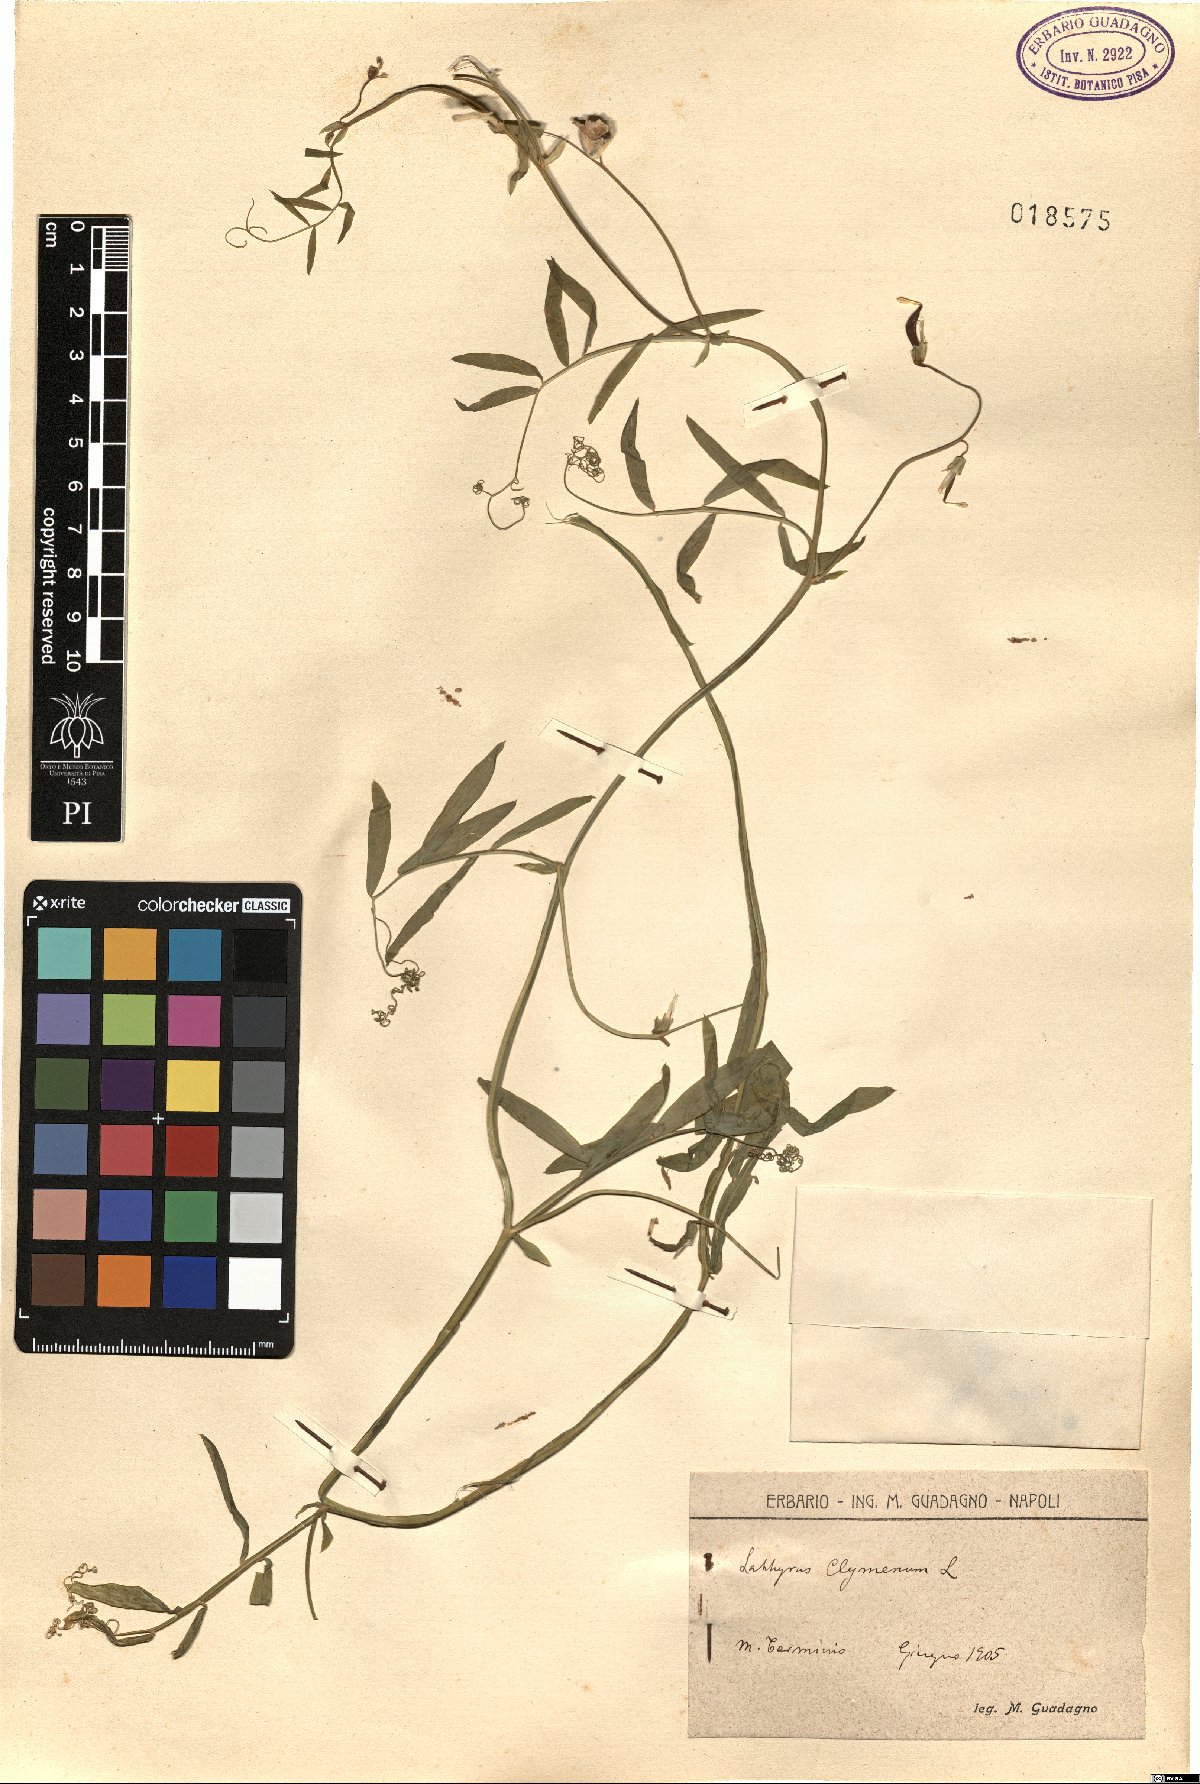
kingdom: Plantae
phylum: Tracheophyta
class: Magnoliopsida
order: Fabales
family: Fabaceae
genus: Lathyrus
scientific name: Lathyrus clymenum
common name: Spanish vetchling
